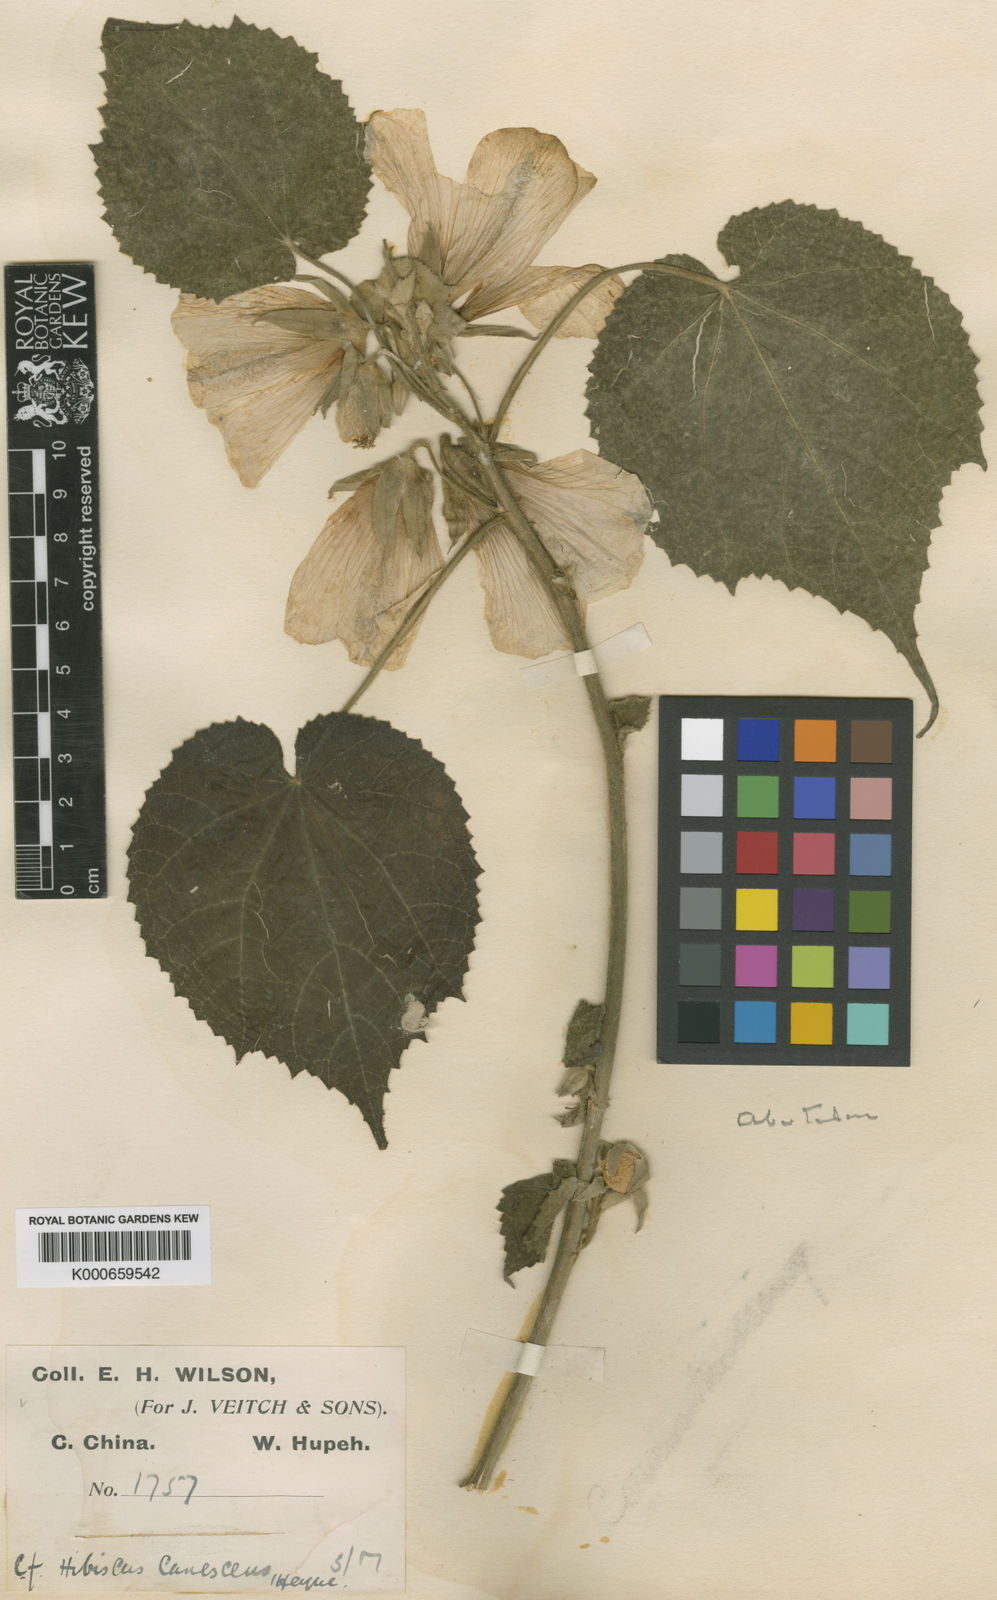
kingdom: Plantae
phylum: Tracheophyta
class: Magnoliopsida
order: Malvales
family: Malvaceae
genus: Abutilon
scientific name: Abutilon sinense
